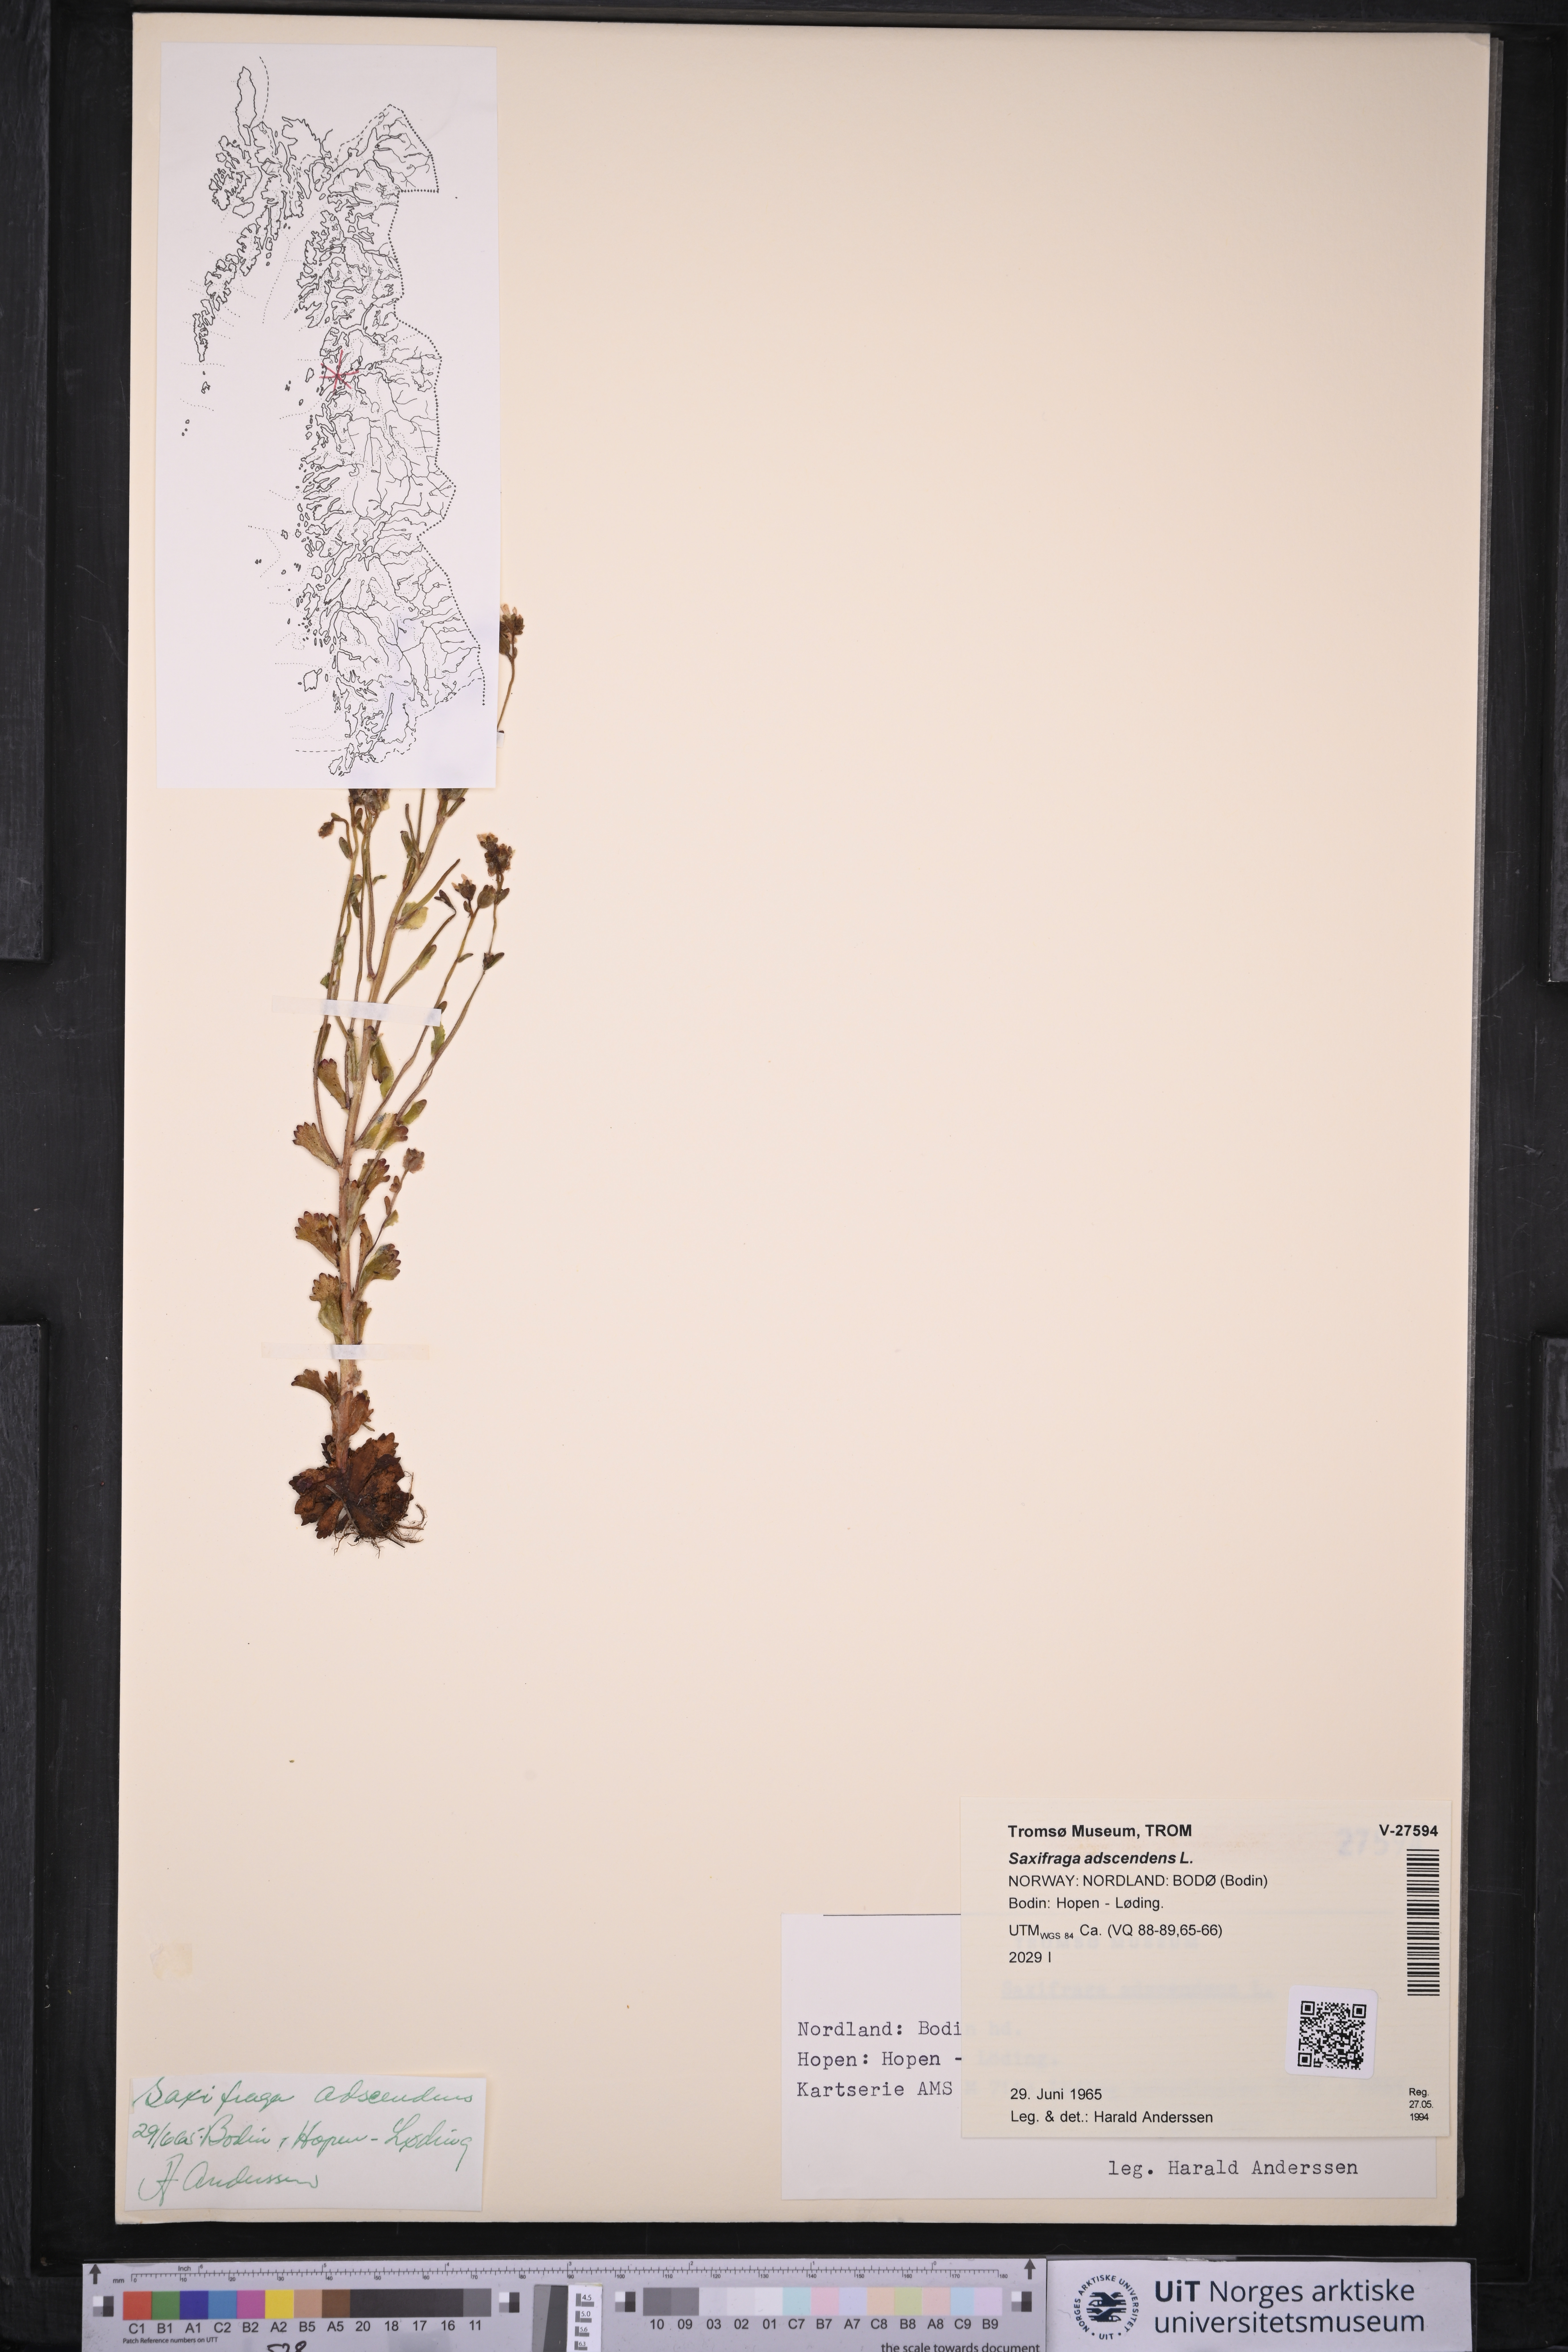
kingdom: Plantae
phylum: Tracheophyta
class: Magnoliopsida
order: Saxifragales
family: Saxifragaceae
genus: Saxifraga
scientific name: Saxifraga adscendens
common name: Ascending saxifrage
